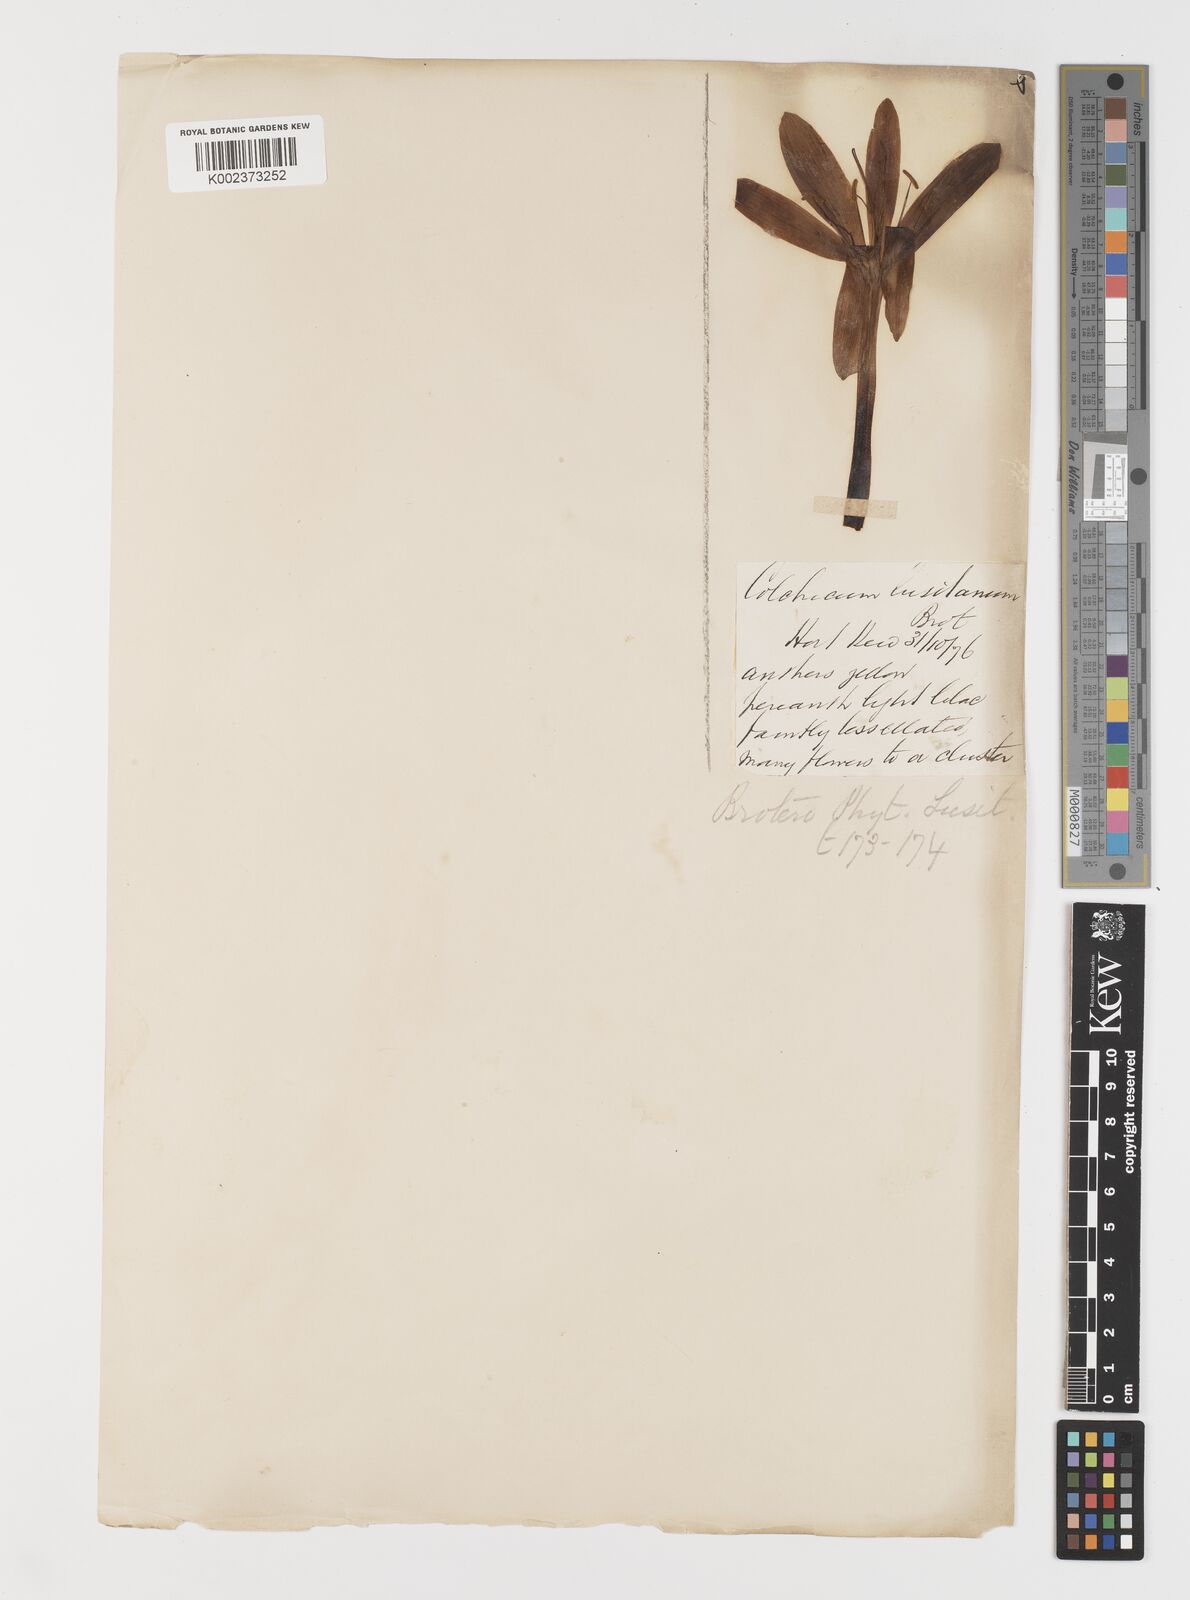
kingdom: Plantae
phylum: Tracheophyta
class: Liliopsida
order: Liliales
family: Colchicaceae
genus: Colchicum
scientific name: Colchicum lusitanum
